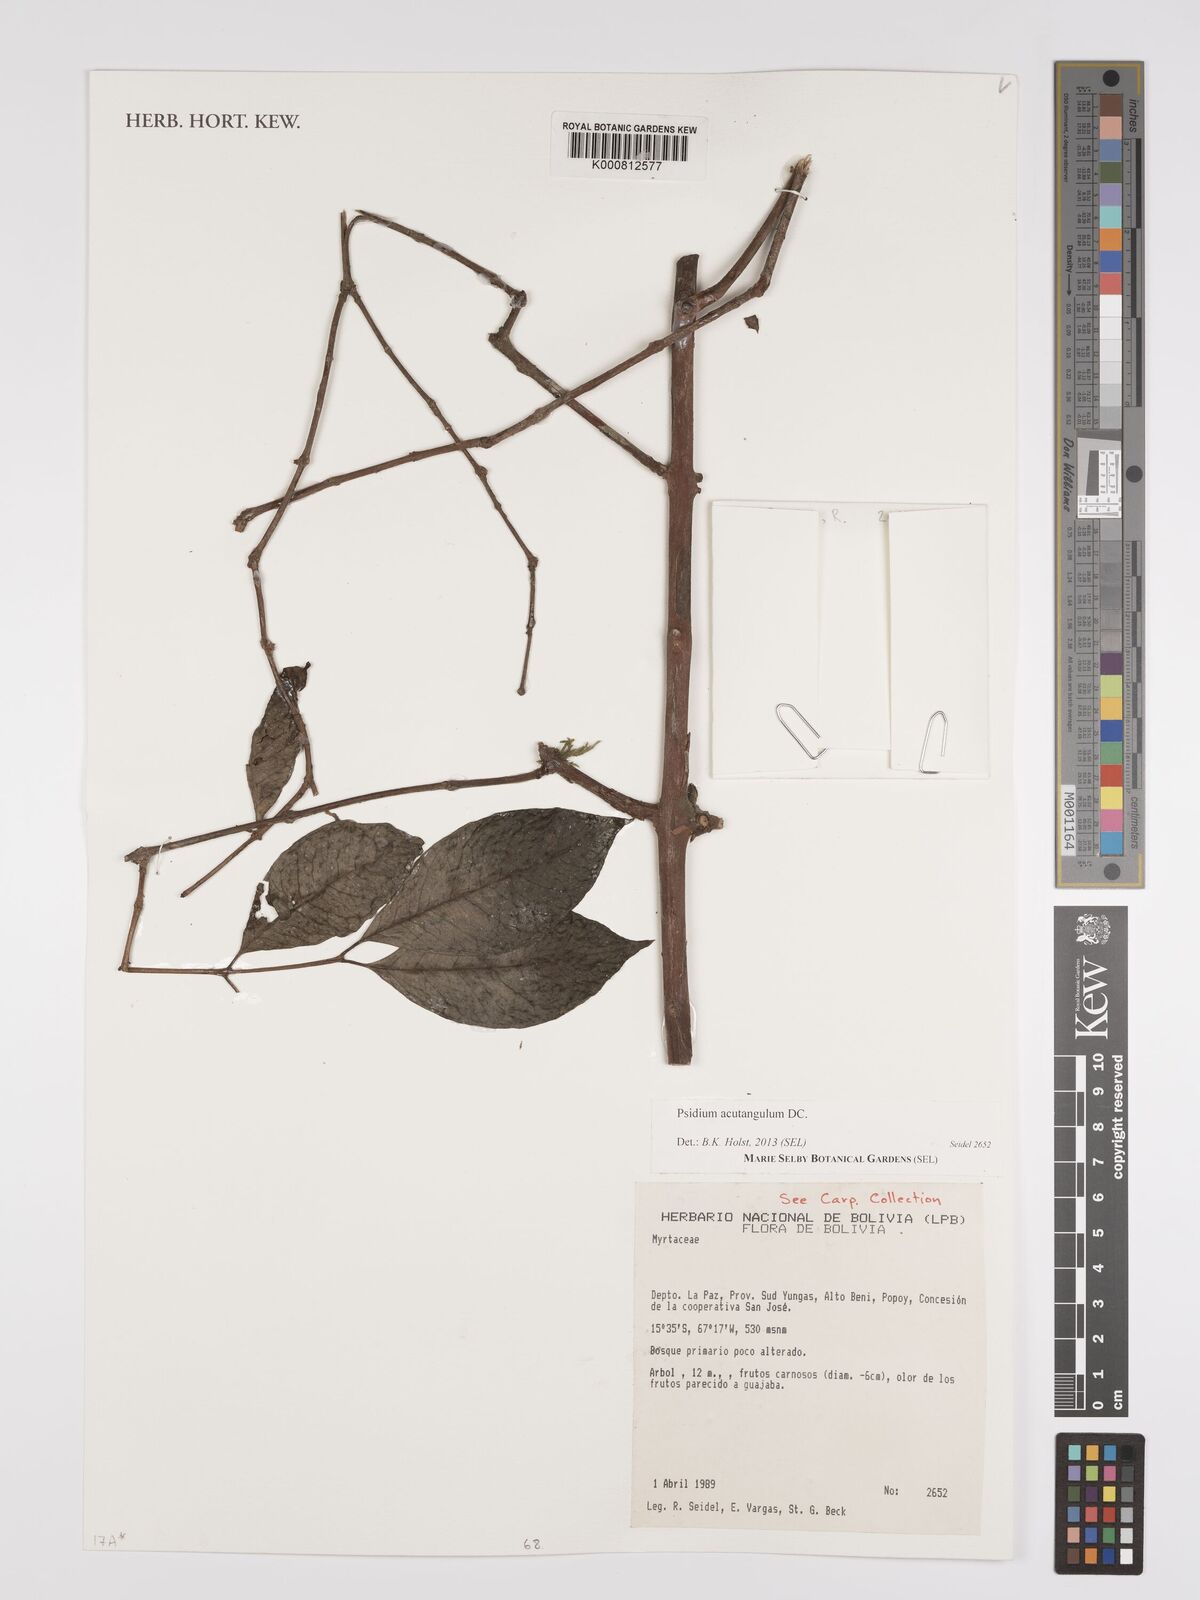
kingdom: Plantae
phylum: Tracheophyta
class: Magnoliopsida
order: Myrtales
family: Myrtaceae
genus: Psidium
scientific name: Psidium acutangulum
